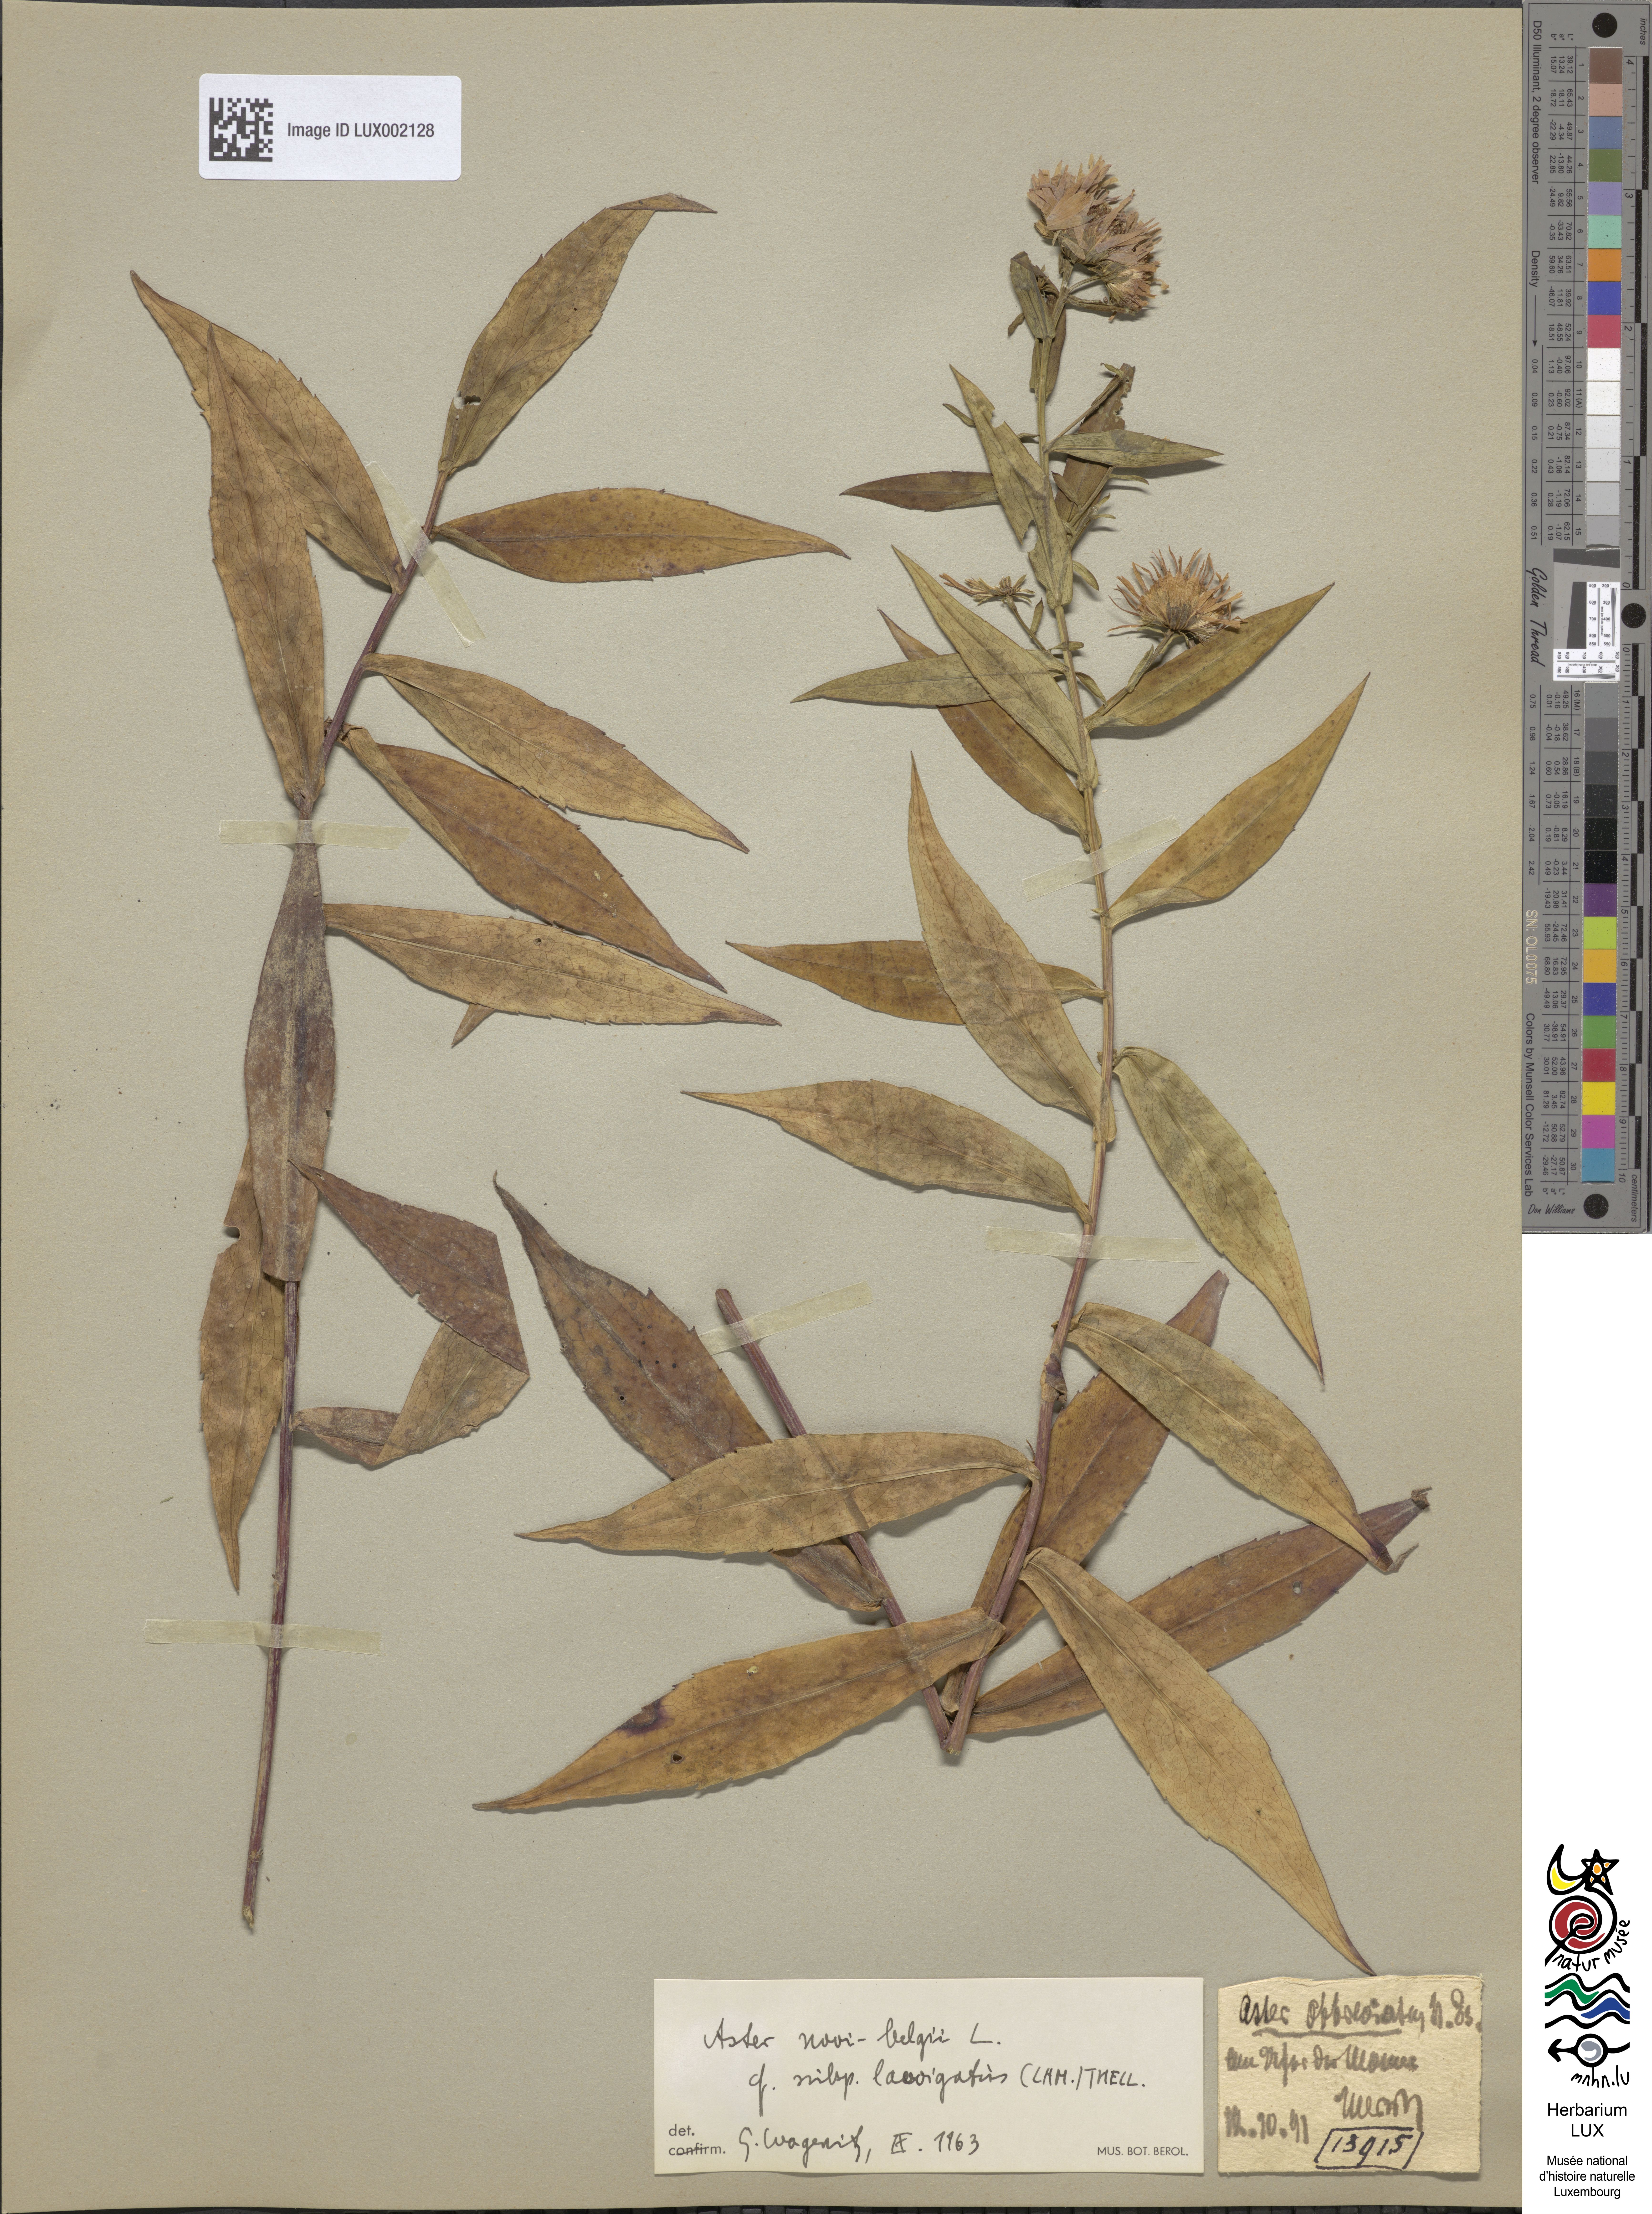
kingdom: Plantae
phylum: Tracheophyta
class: Magnoliopsida
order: Asterales
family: Asteraceae
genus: Symphyotrichum
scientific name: Symphyotrichum versicolor
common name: Late michaelmas daisy
